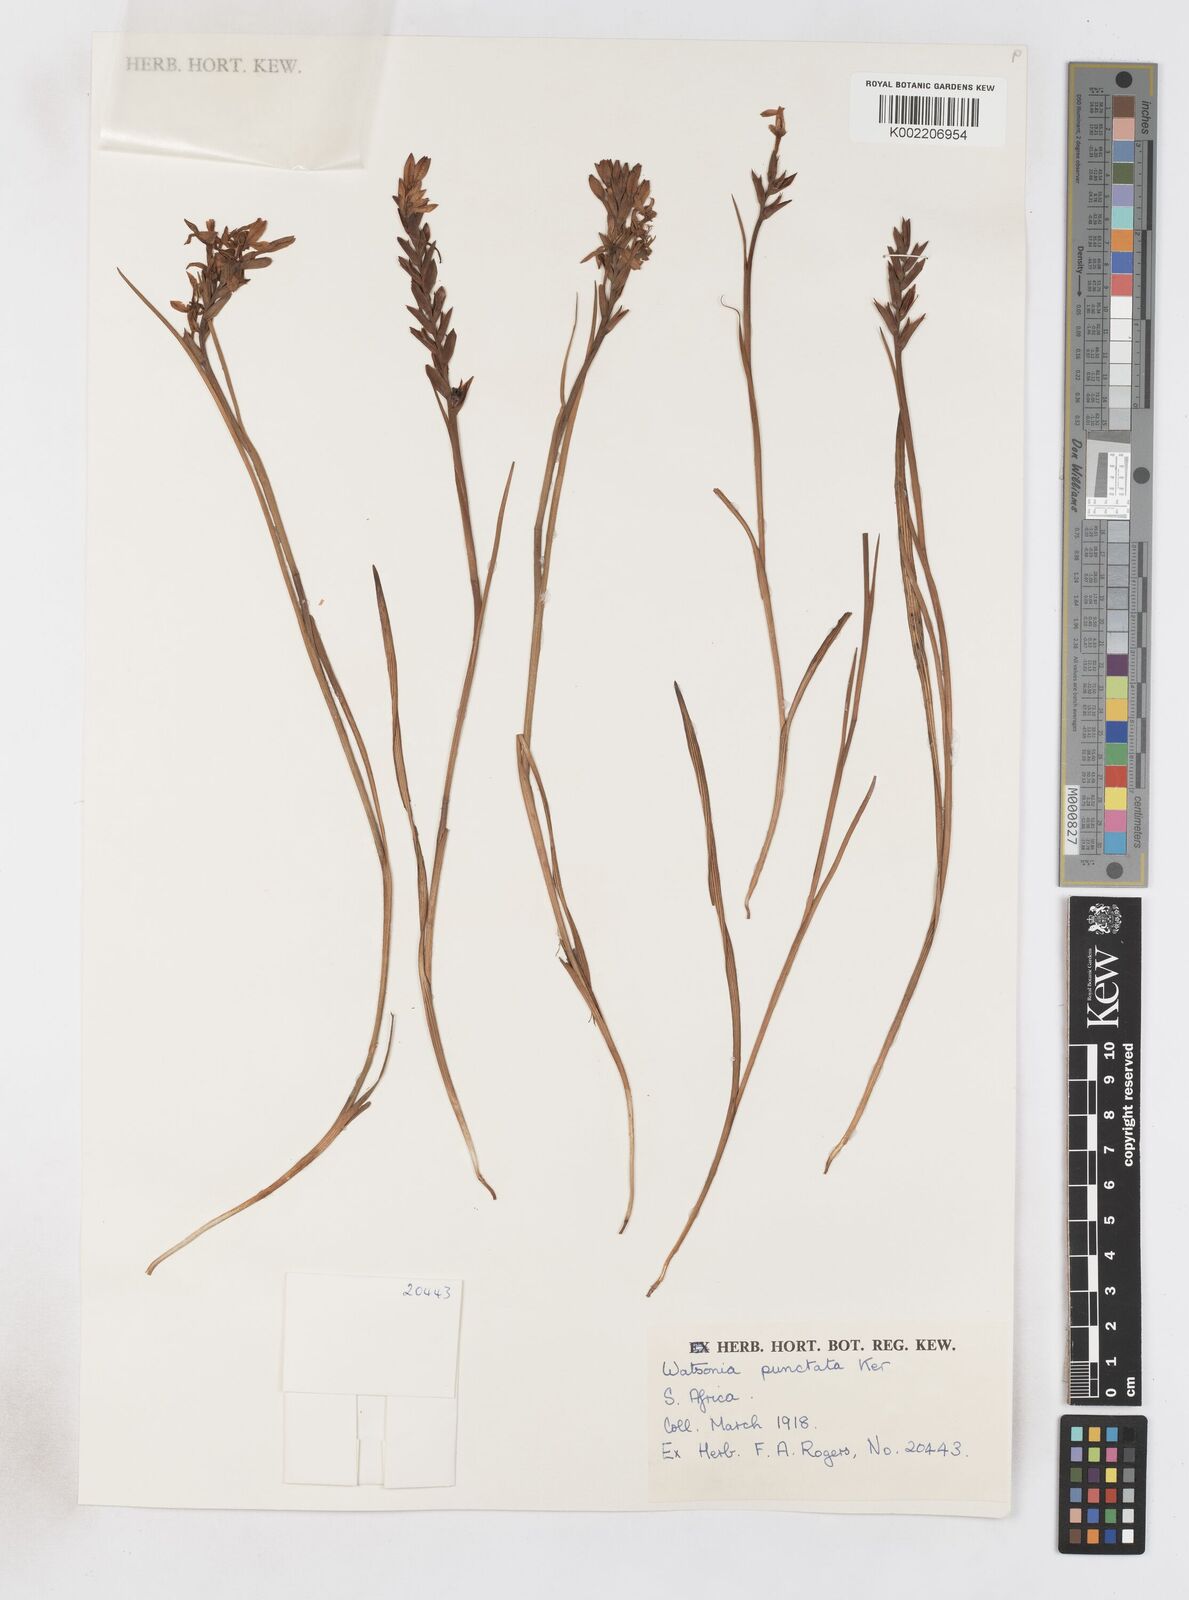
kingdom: Plantae
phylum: Tracheophyta
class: Liliopsida
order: Asparagales
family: Iridaceae
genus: Thereianthus
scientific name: Thereianthus spicatus
